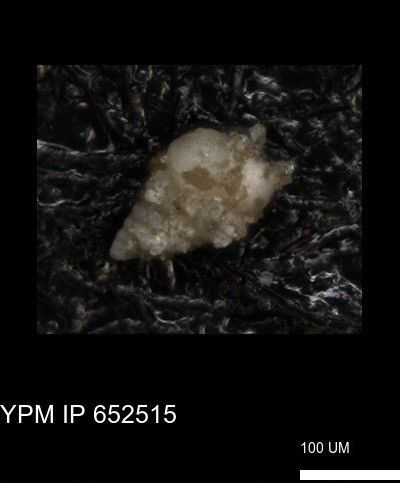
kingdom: Chromista
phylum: Foraminifera
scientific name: Foraminifera
